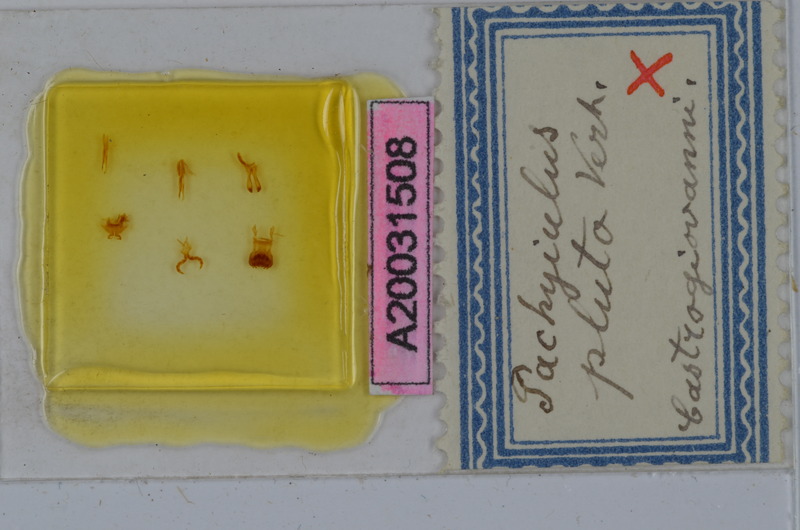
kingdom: Animalia
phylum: Arthropoda
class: Diplopoda
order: Julida
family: Julidae
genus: Pachyiulus
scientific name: Pachyiulus oenologus
